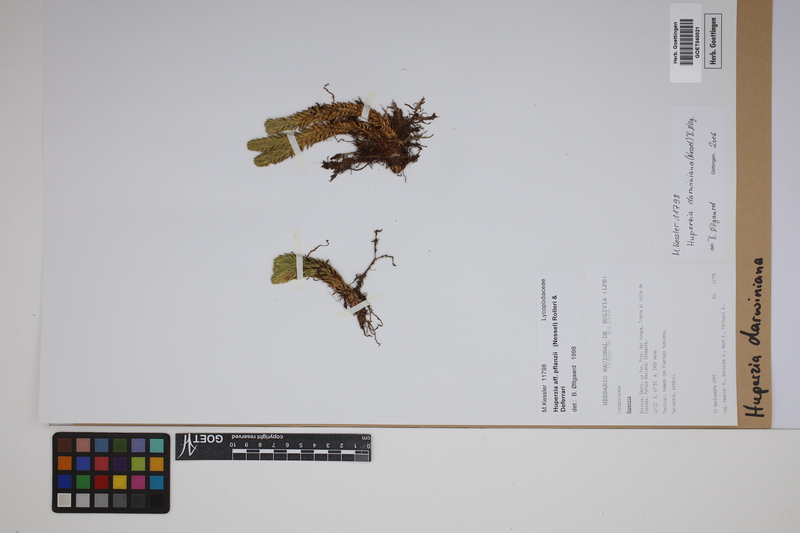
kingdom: Plantae
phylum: Tracheophyta
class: Lycopodiopsida
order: Lycopodiales
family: Lycopodiaceae
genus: Phlegmariurus
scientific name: Phlegmariurus darwinianus
